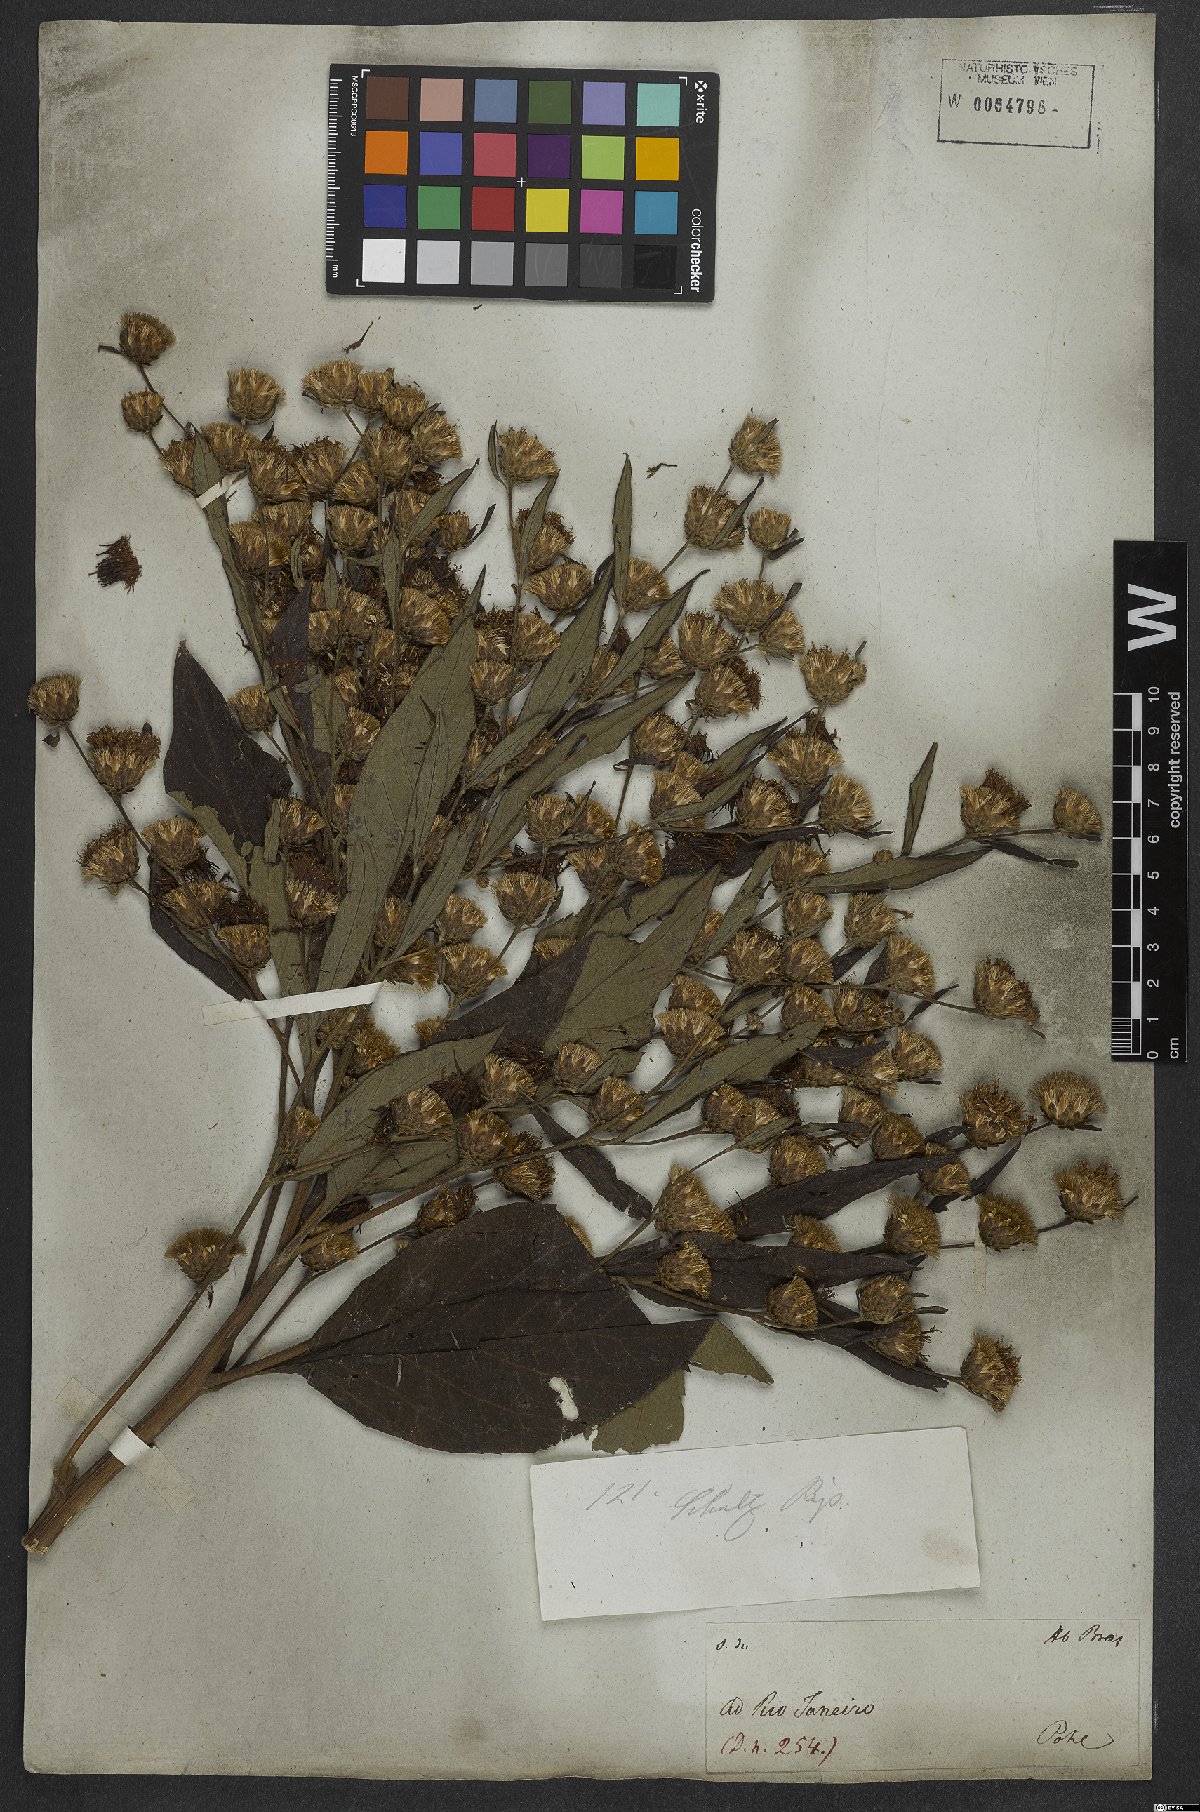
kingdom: Plantae
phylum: Tracheophyta
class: Magnoliopsida
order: Asterales
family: Asteraceae
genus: Gymnanthemum
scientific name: Gymnanthemum theophrastifolium
